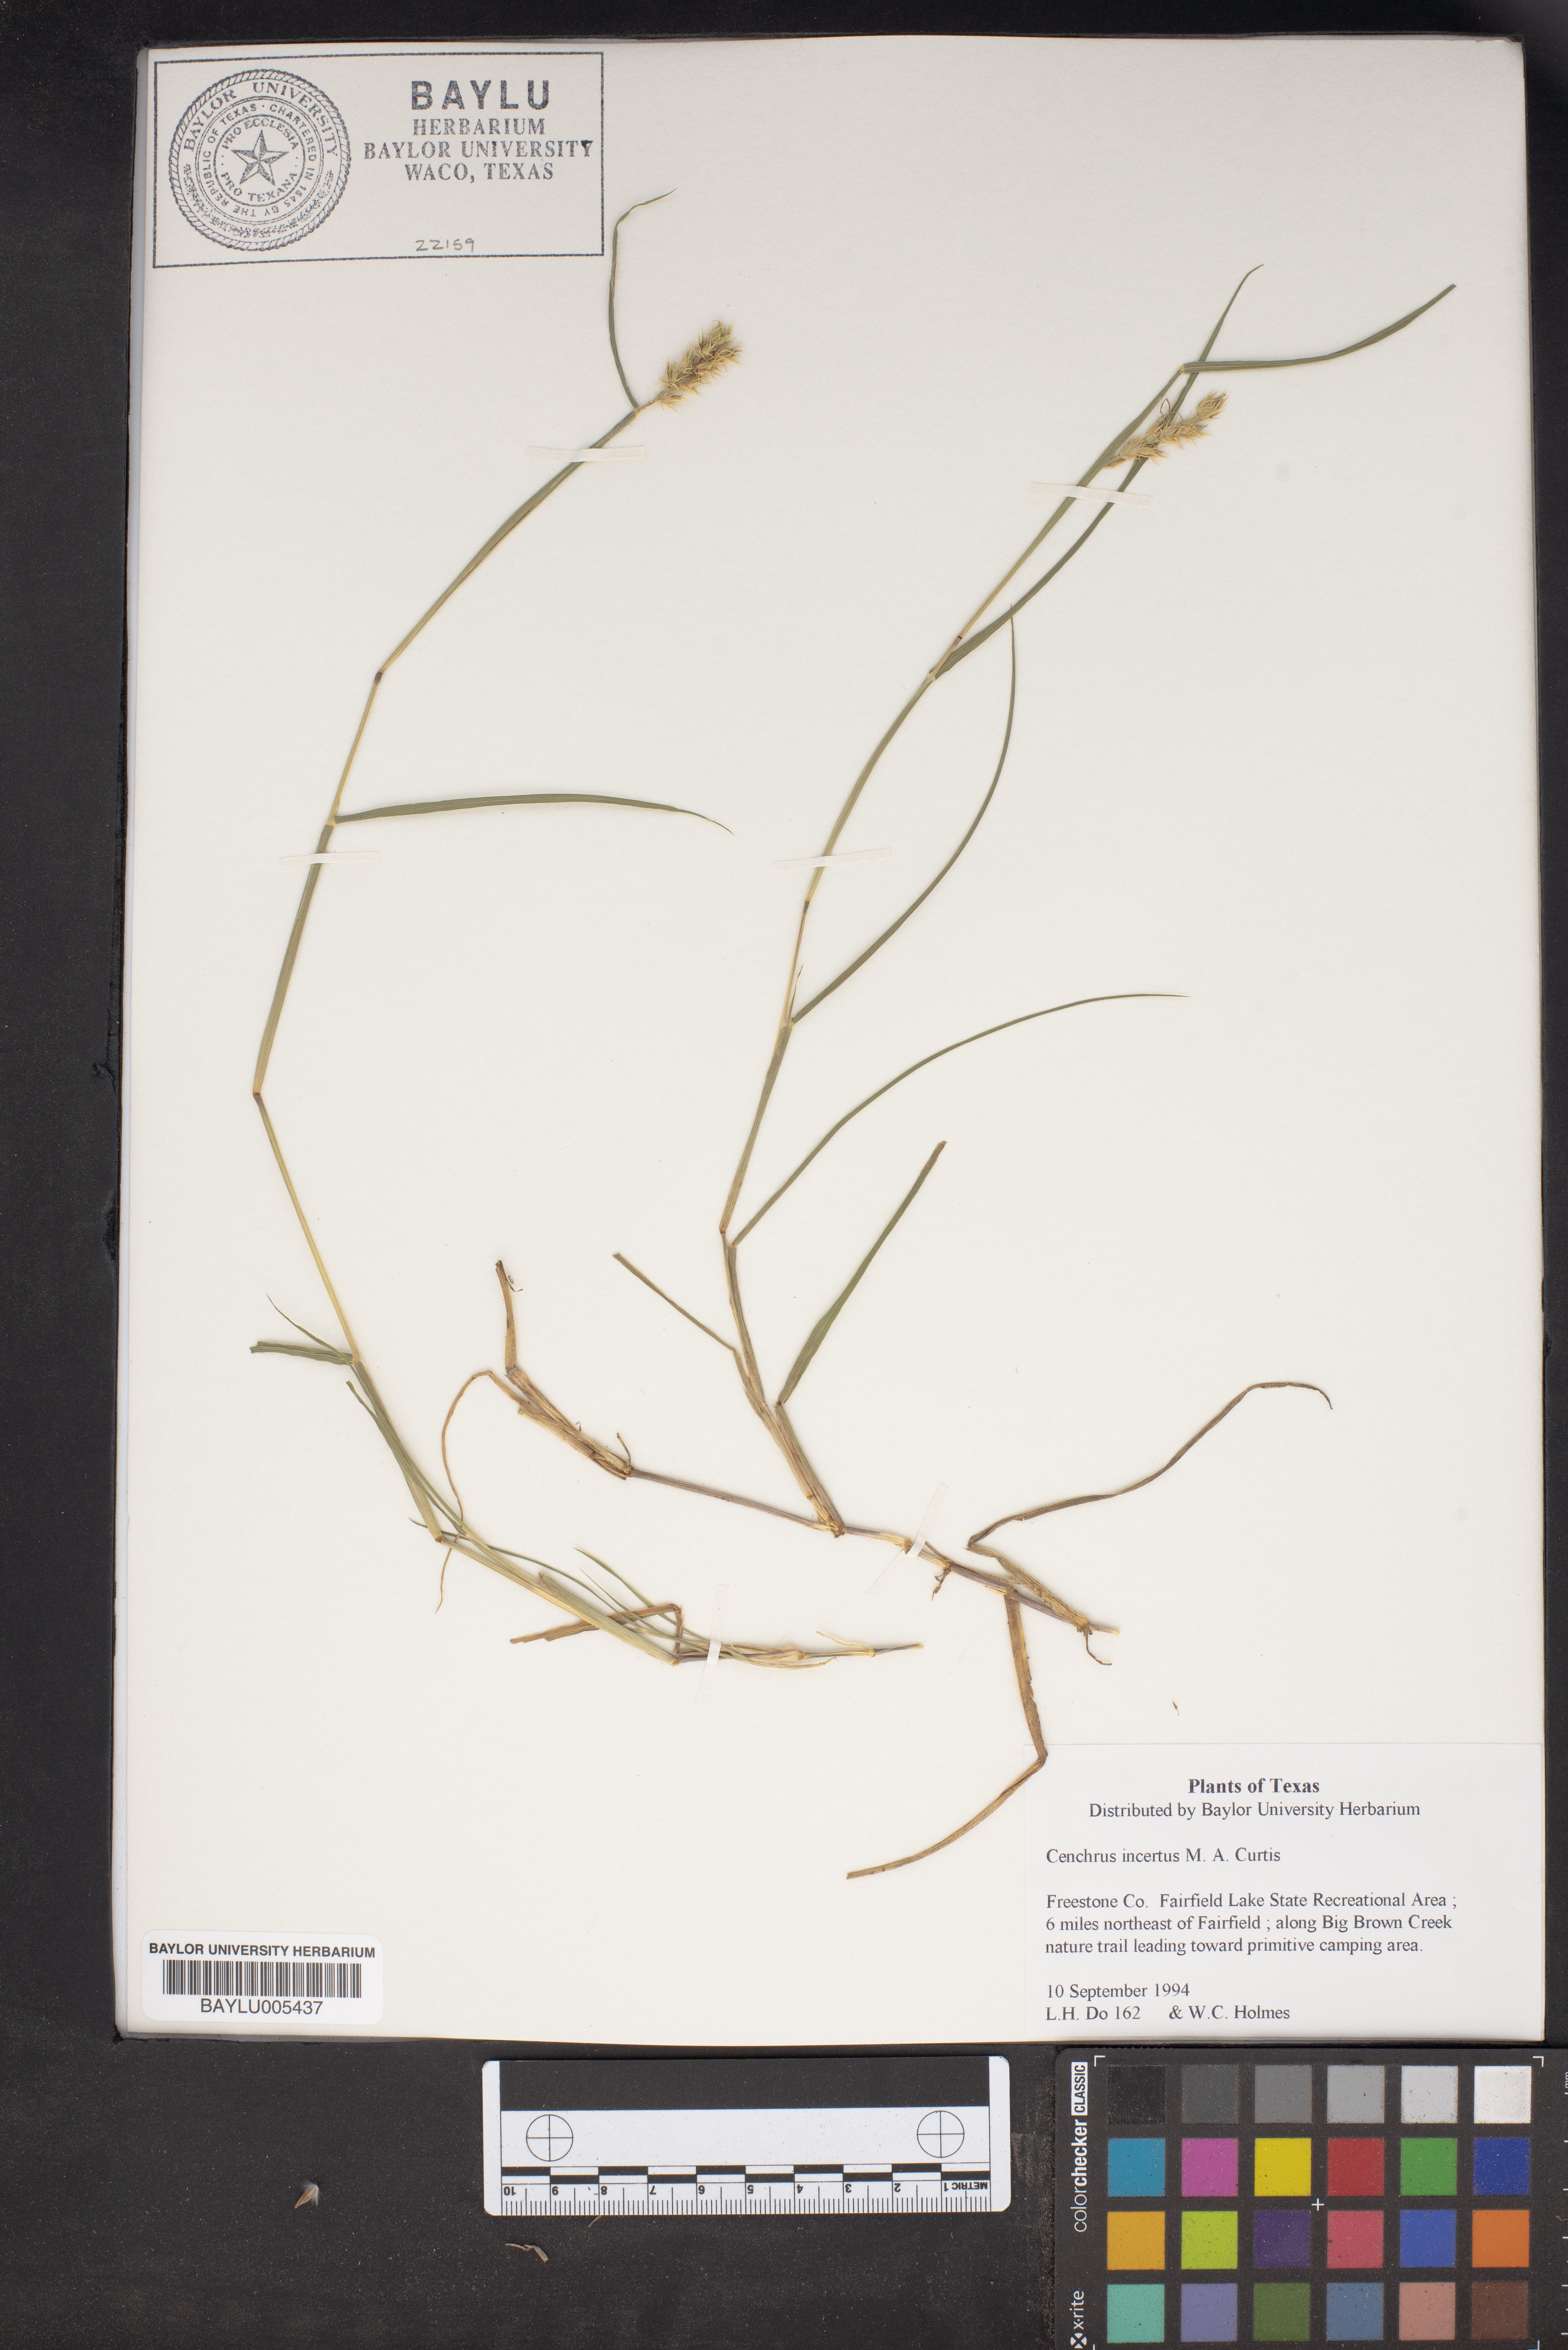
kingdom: Plantae
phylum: Tracheophyta
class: Liliopsida
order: Poales
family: Poaceae
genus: Cenchrus
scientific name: Cenchrus spinifex
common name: Coast sandbur
